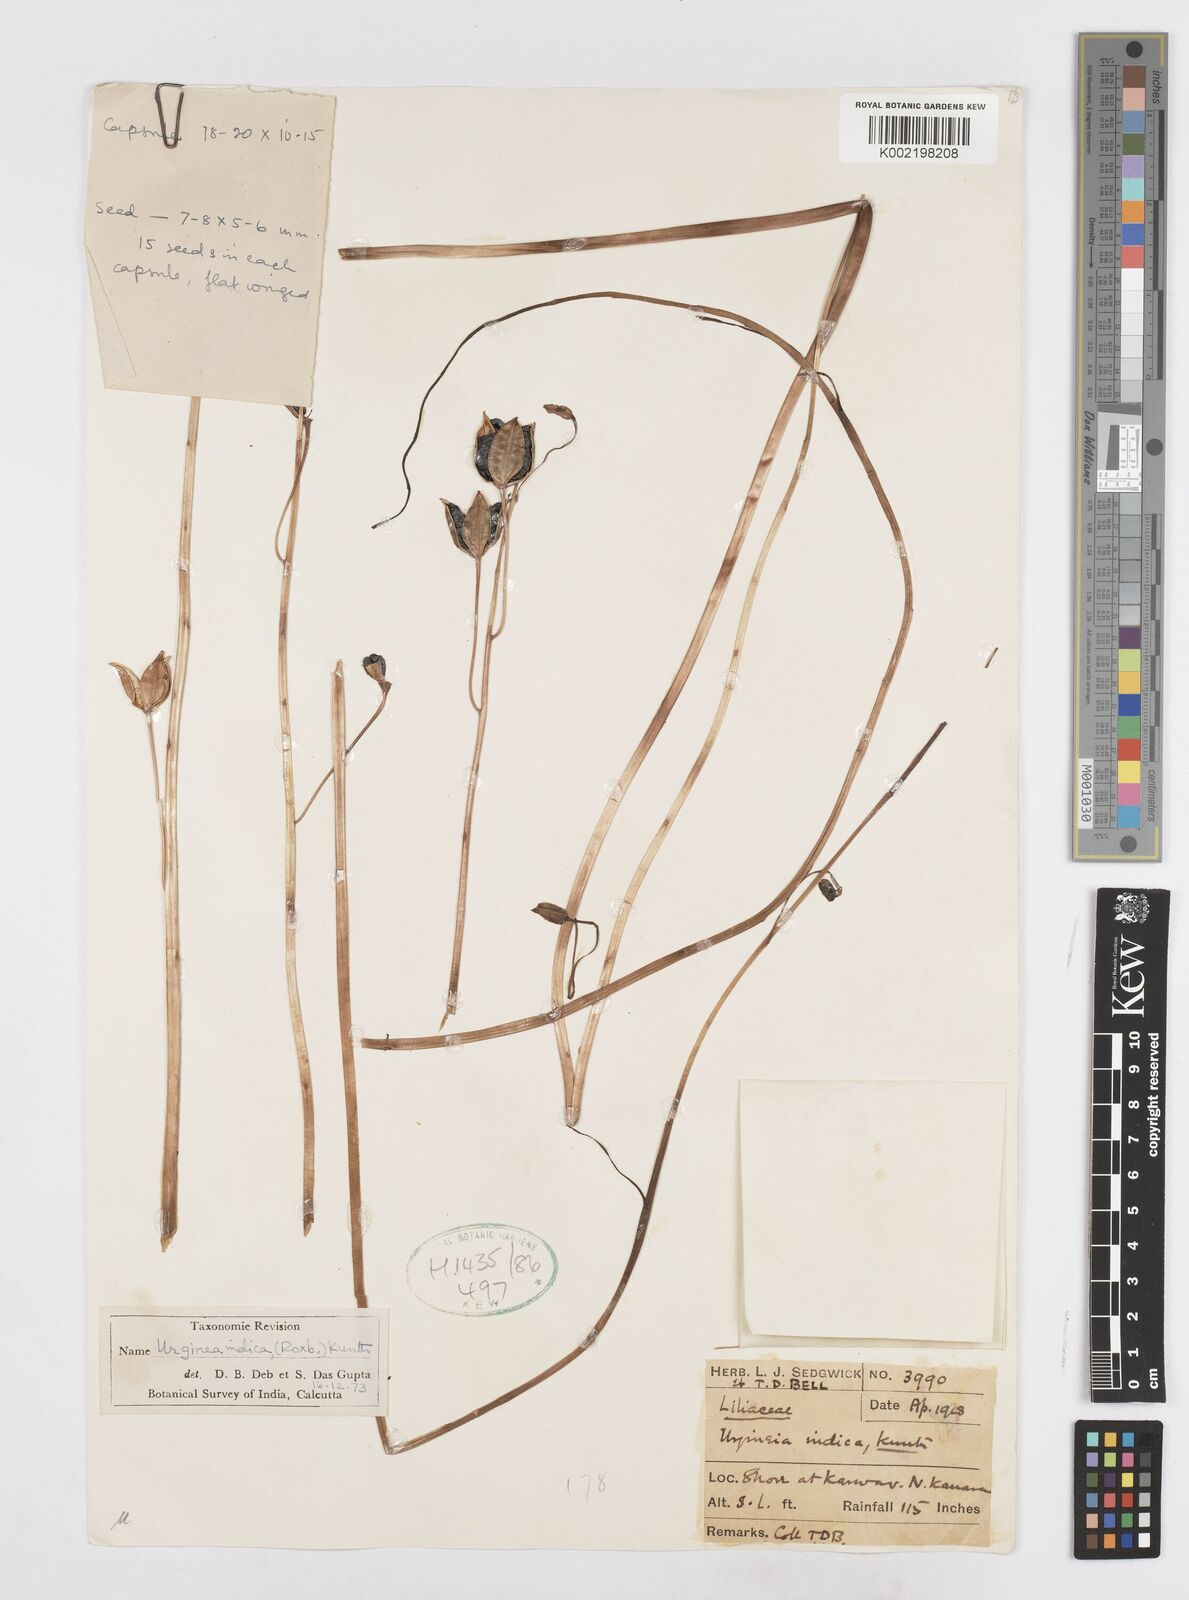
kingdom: Plantae
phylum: Tracheophyta
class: Liliopsida
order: Asparagales
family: Asparagaceae
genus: Drimia
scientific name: Drimia indica
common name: Indian-squill
